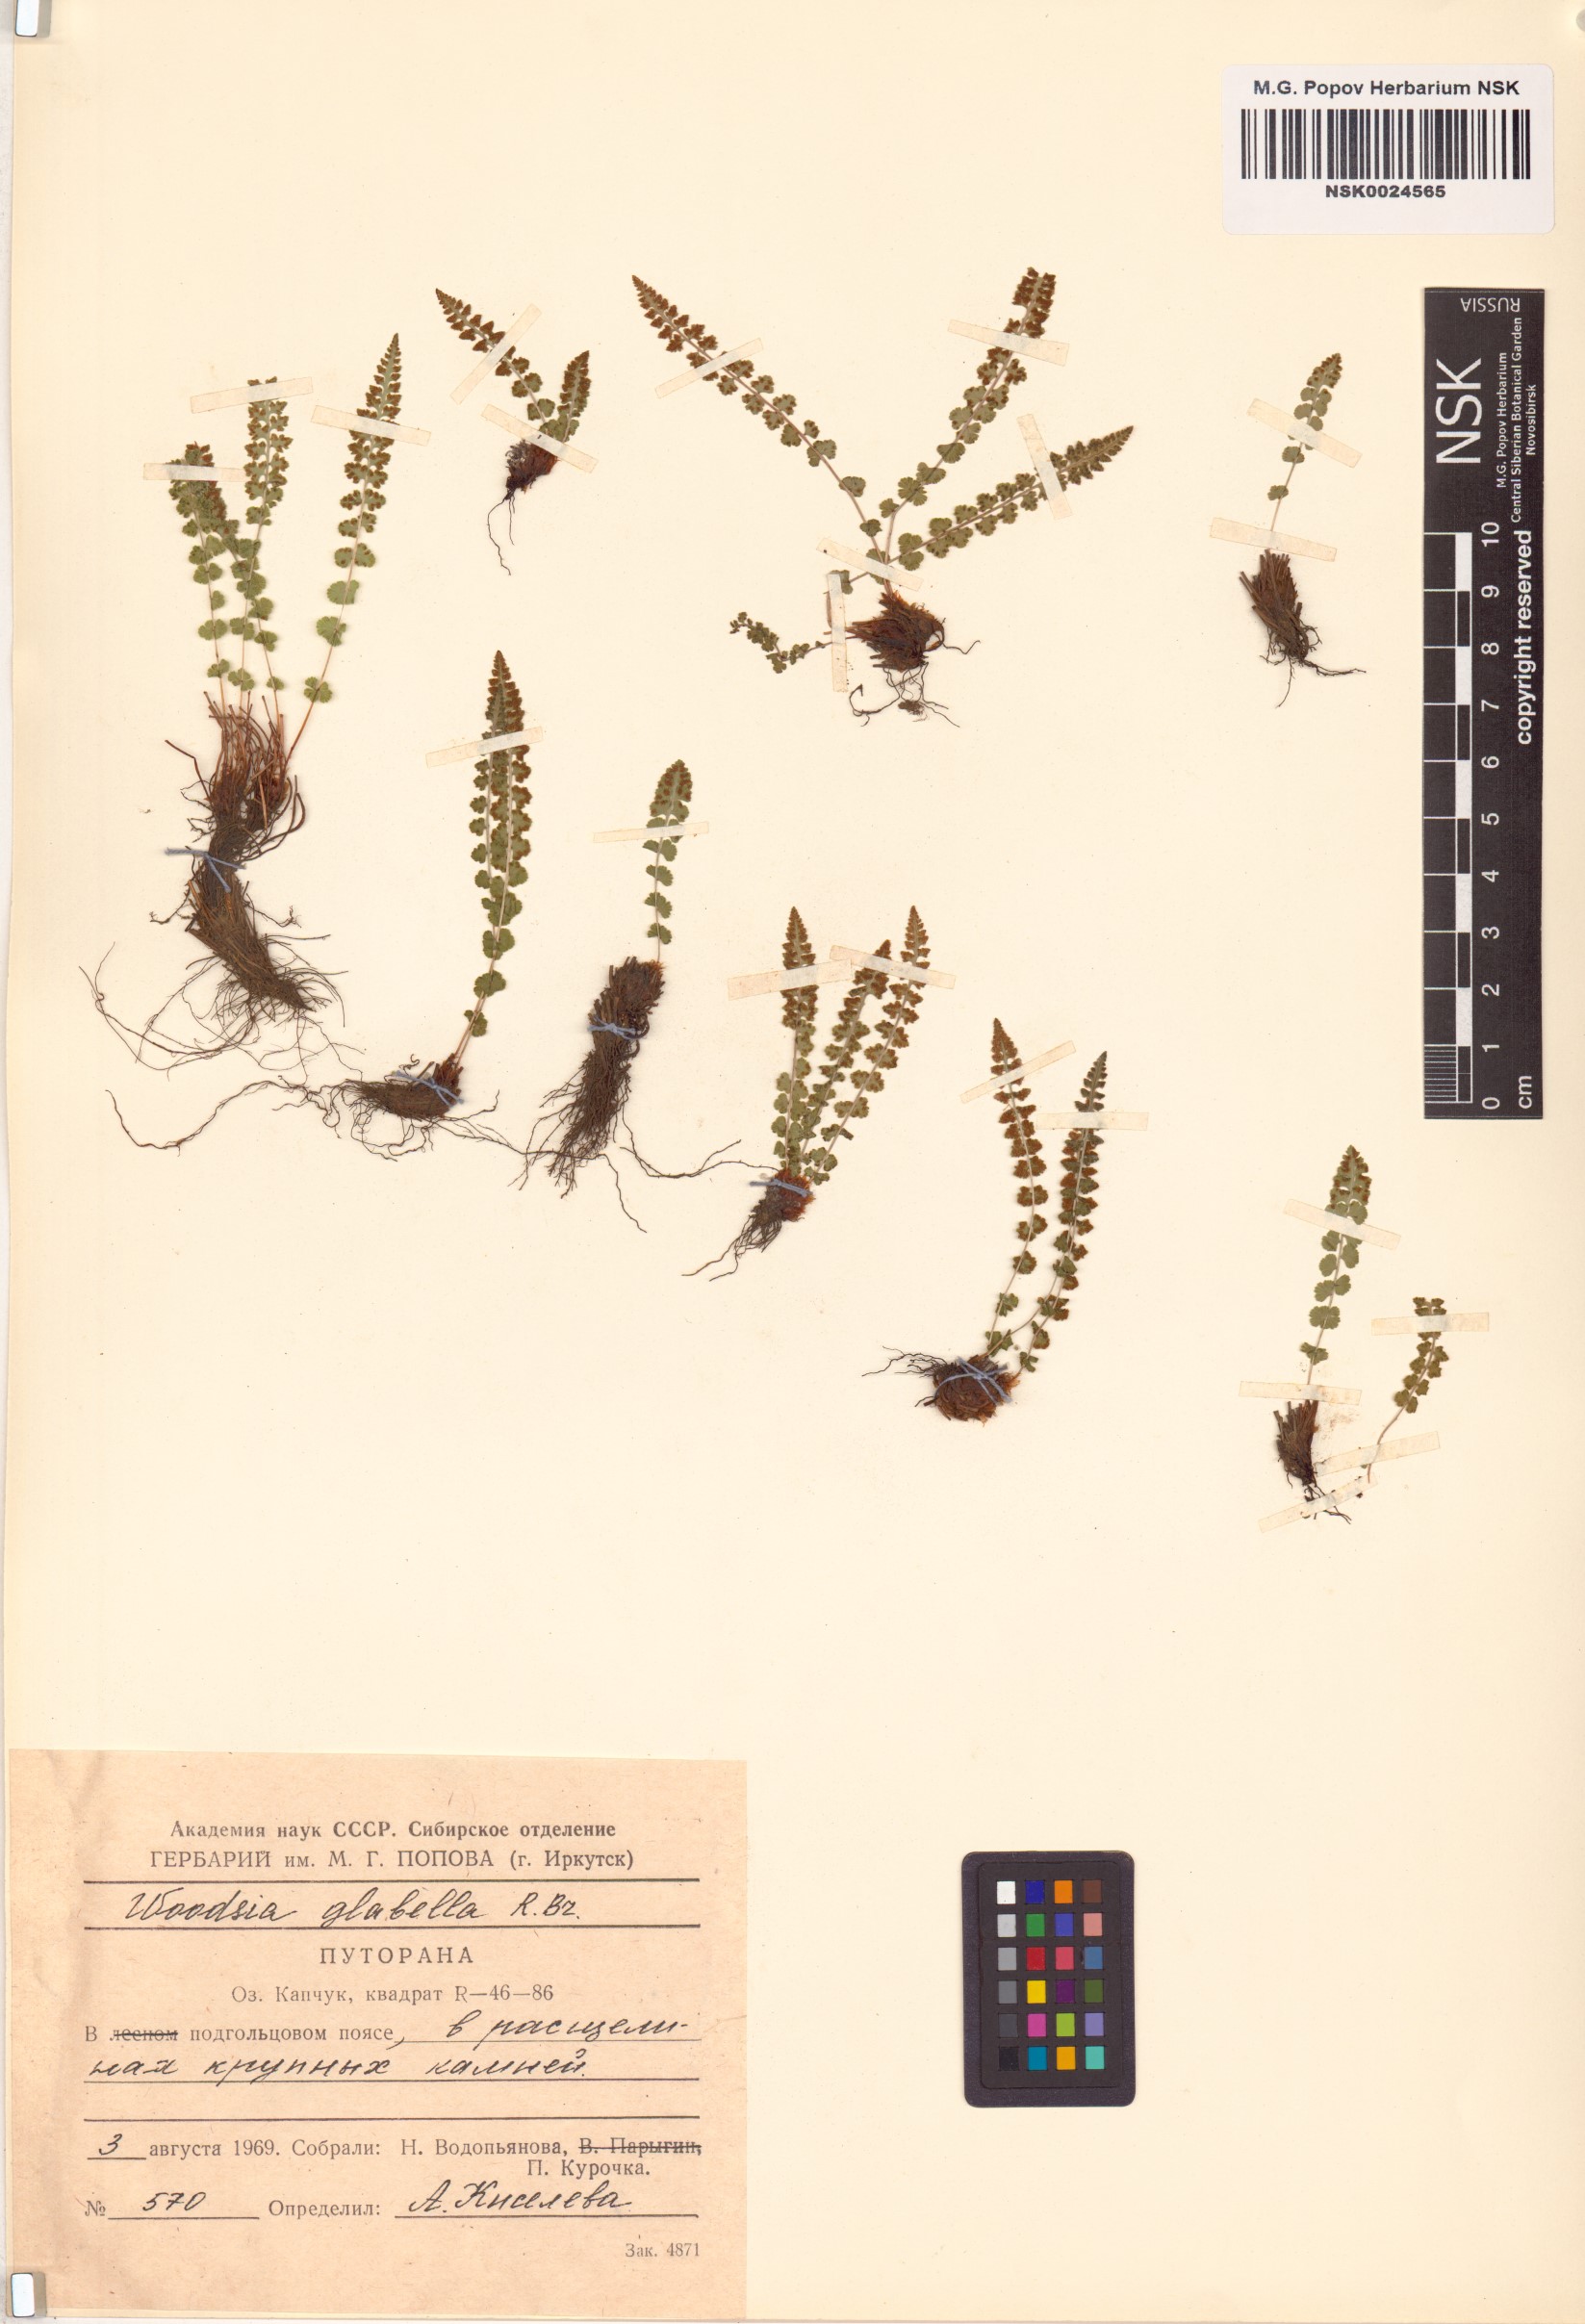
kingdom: Plantae
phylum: Tracheophyta
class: Polypodiopsida
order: Polypodiales
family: Woodsiaceae
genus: Woodsia
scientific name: Woodsia glabella
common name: Smooth woodsia
